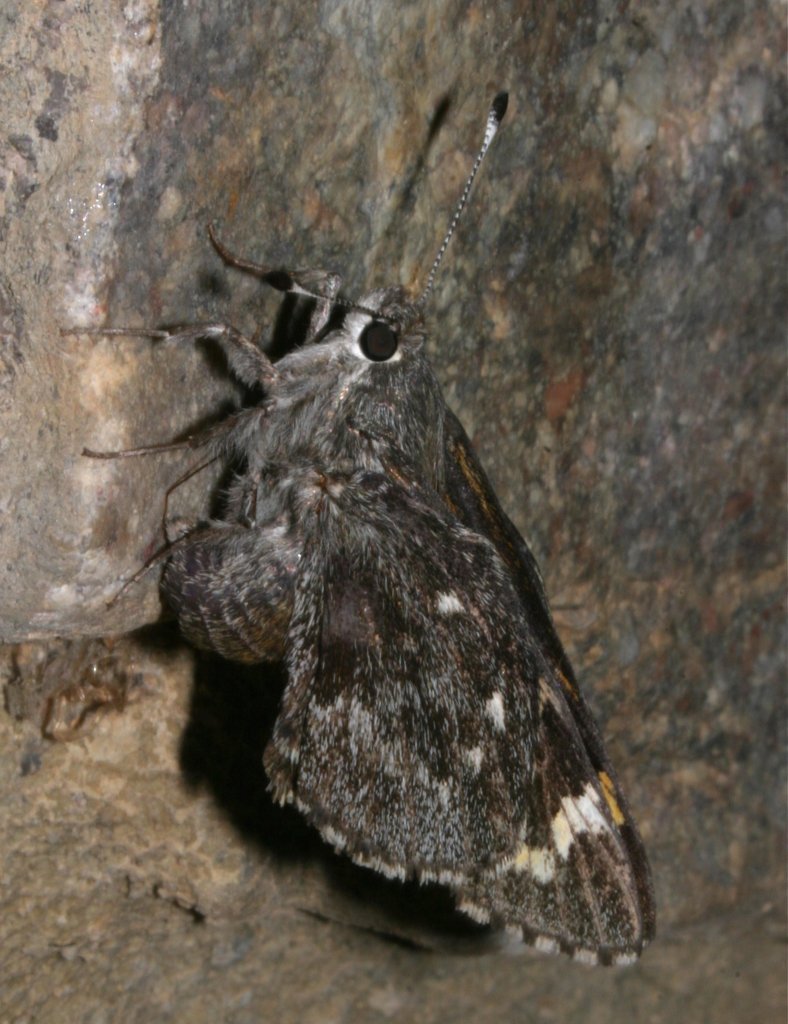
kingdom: Animalia
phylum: Arthropoda
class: Insecta
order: Lepidoptera
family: Hesperiidae
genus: Agathymus
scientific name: Agathymus evansi
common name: Huachuca Giant-Skipper
